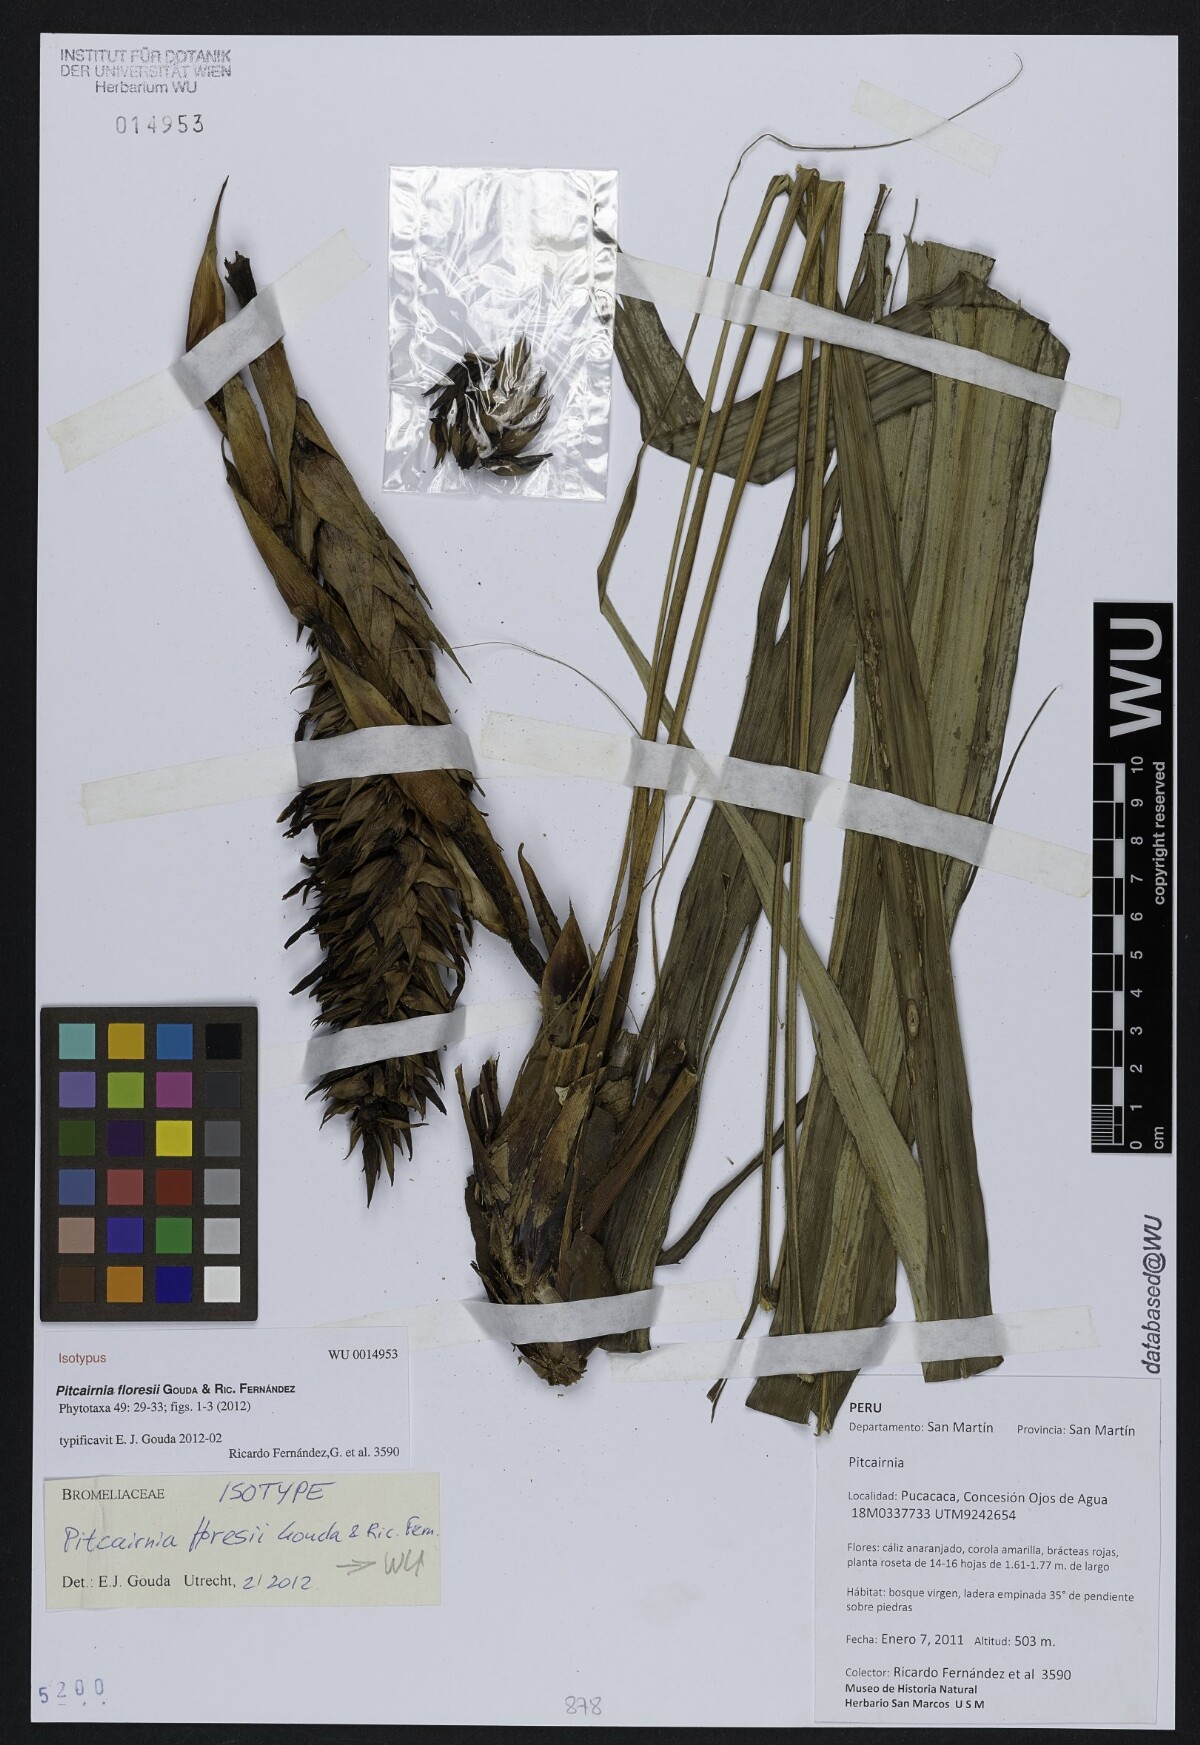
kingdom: Plantae
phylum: Tracheophyta
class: Liliopsida
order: Poales
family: Bromeliaceae
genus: Pitcairnia
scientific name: Pitcairnia floresii
